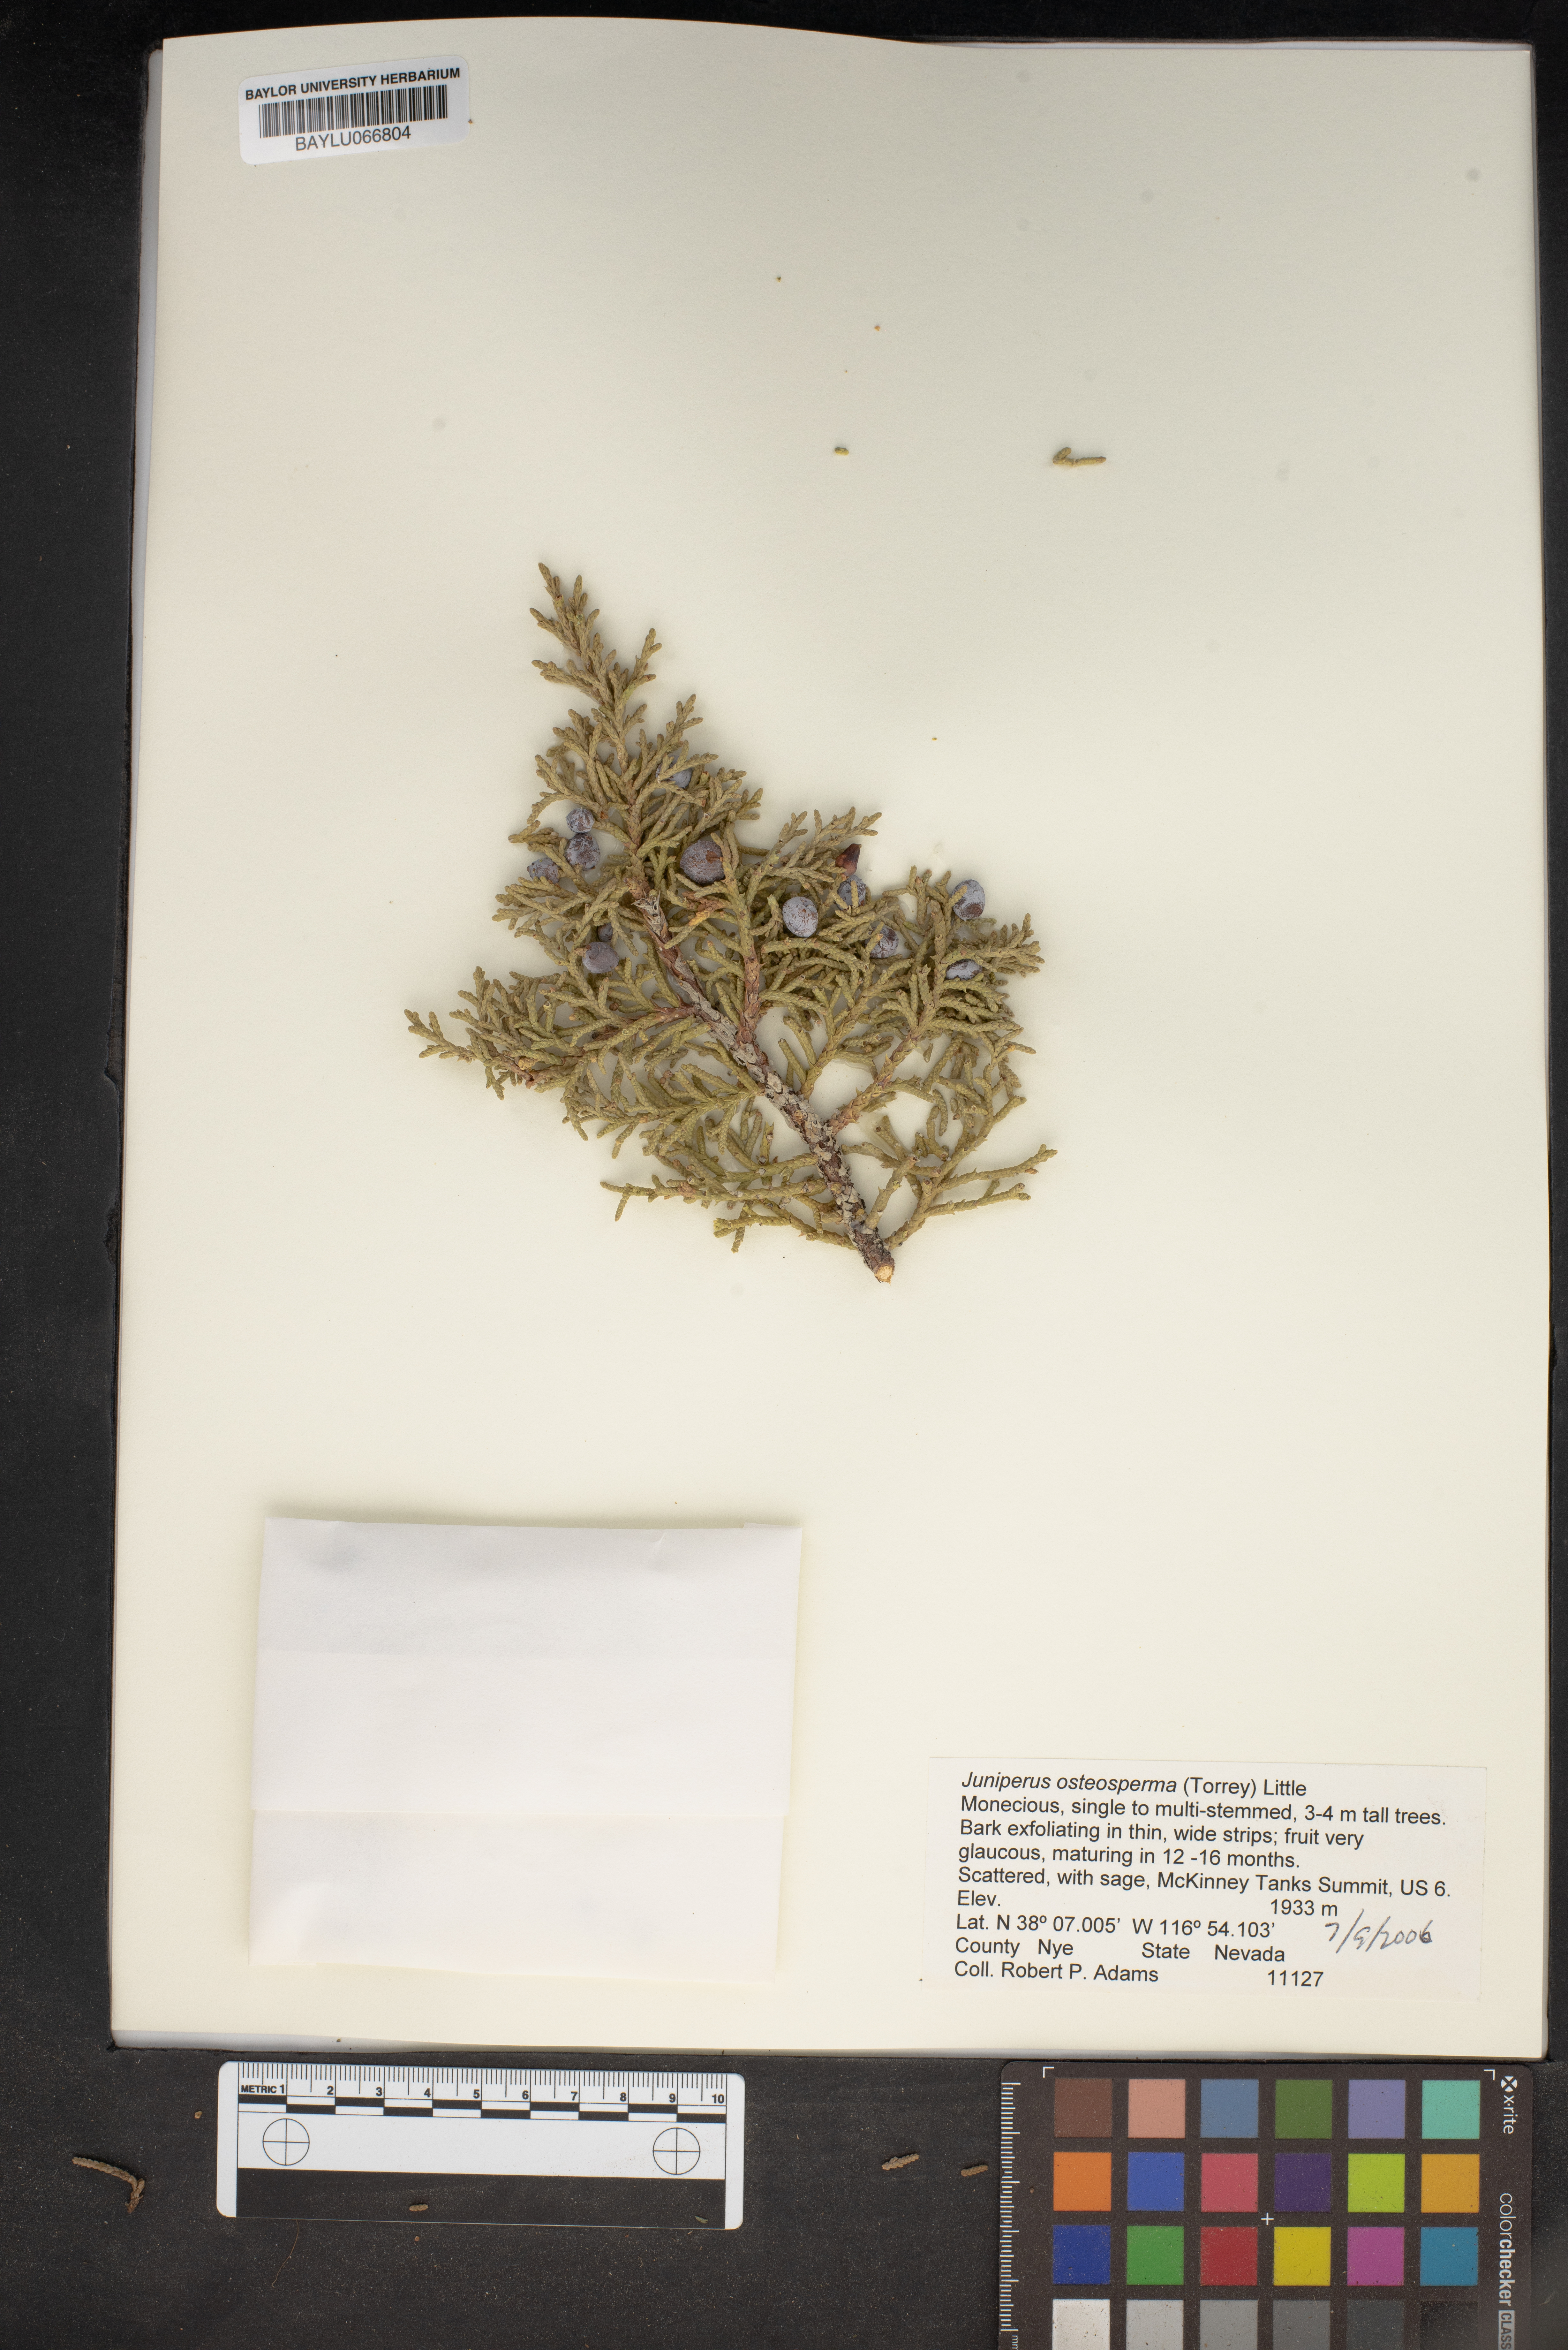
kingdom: Plantae
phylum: Tracheophyta
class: Pinopsida
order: Pinales
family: Cupressaceae
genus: Juniperus
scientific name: Juniperus osteosperma
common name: Utah juniper
